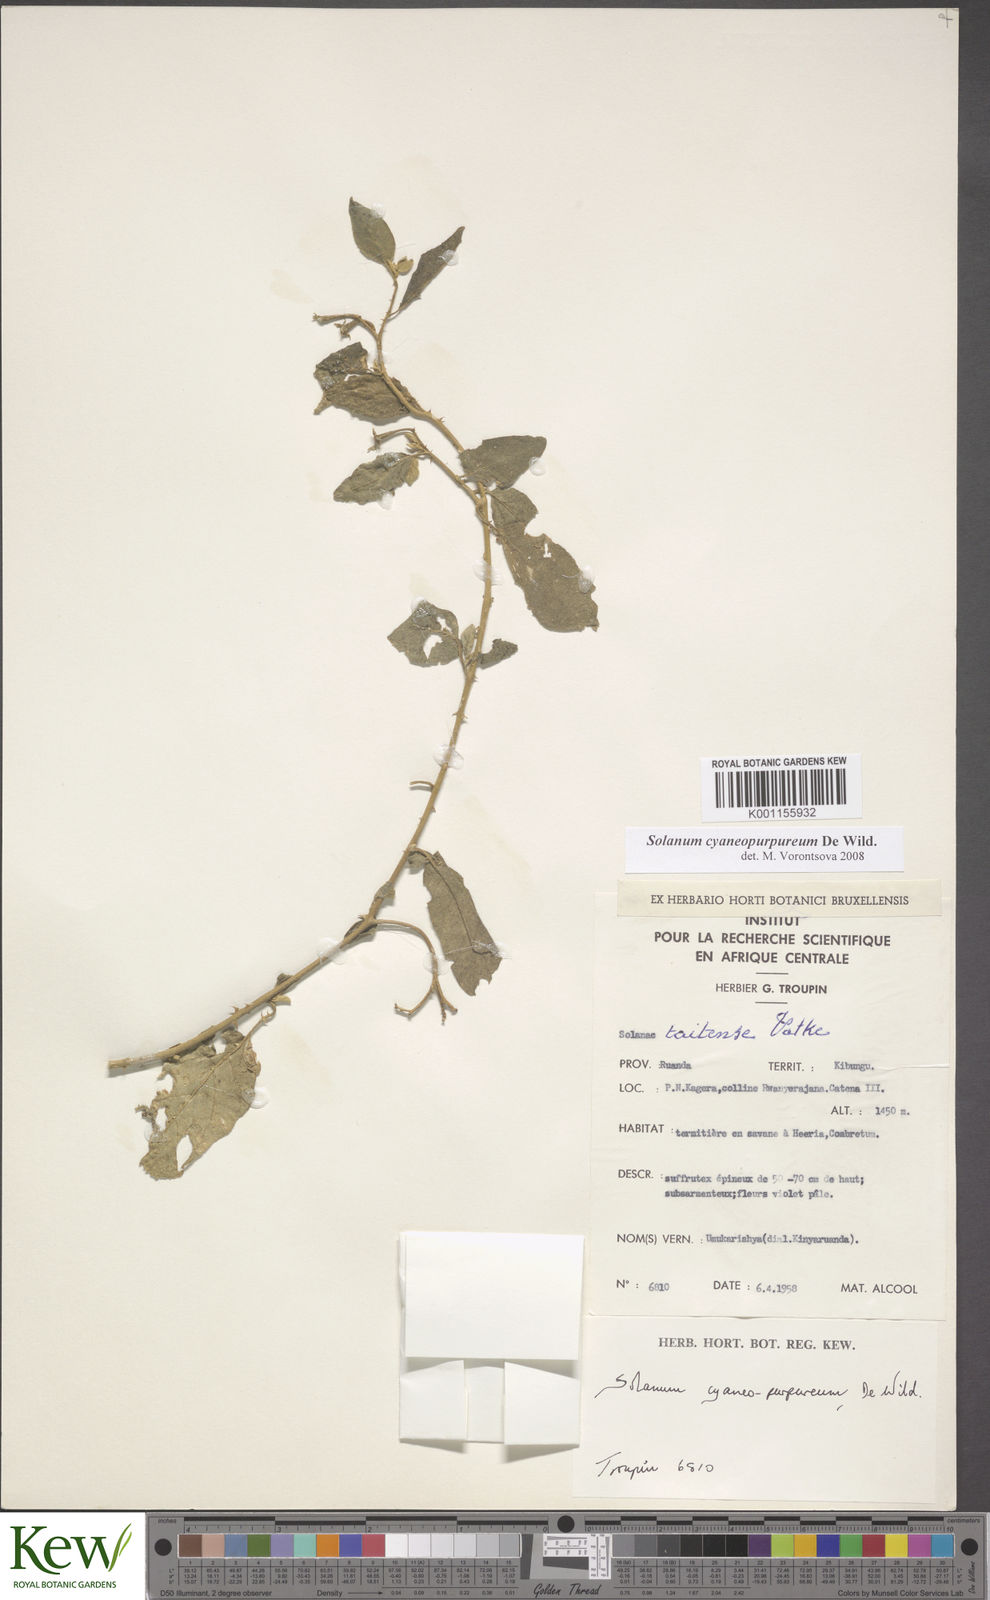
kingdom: Plantae
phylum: Tracheophyta
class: Magnoliopsida
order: Solanales
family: Solanaceae
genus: Solanum
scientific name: Solanum cyaneopurpureum
